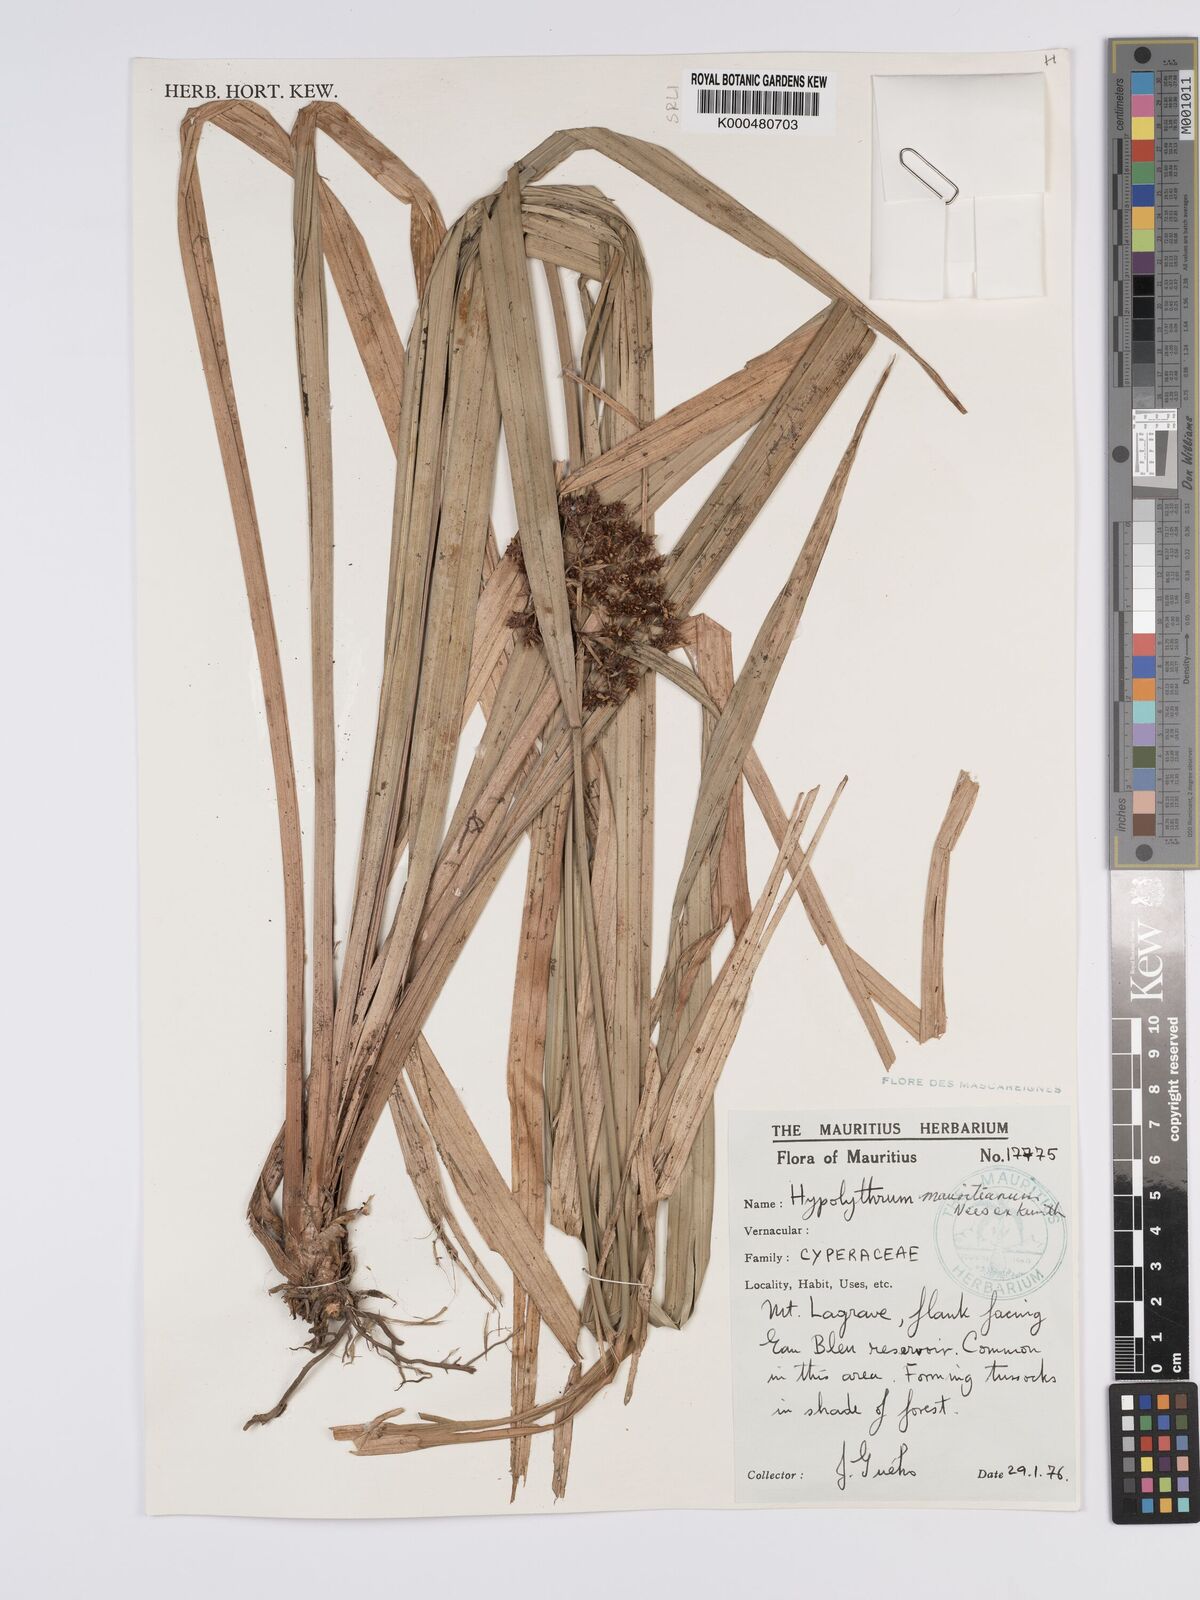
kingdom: Plantae
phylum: Tracheophyta
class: Liliopsida
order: Poales
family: Cyperaceae
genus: Hypolytrum
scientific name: Hypolytrum mauritianum
